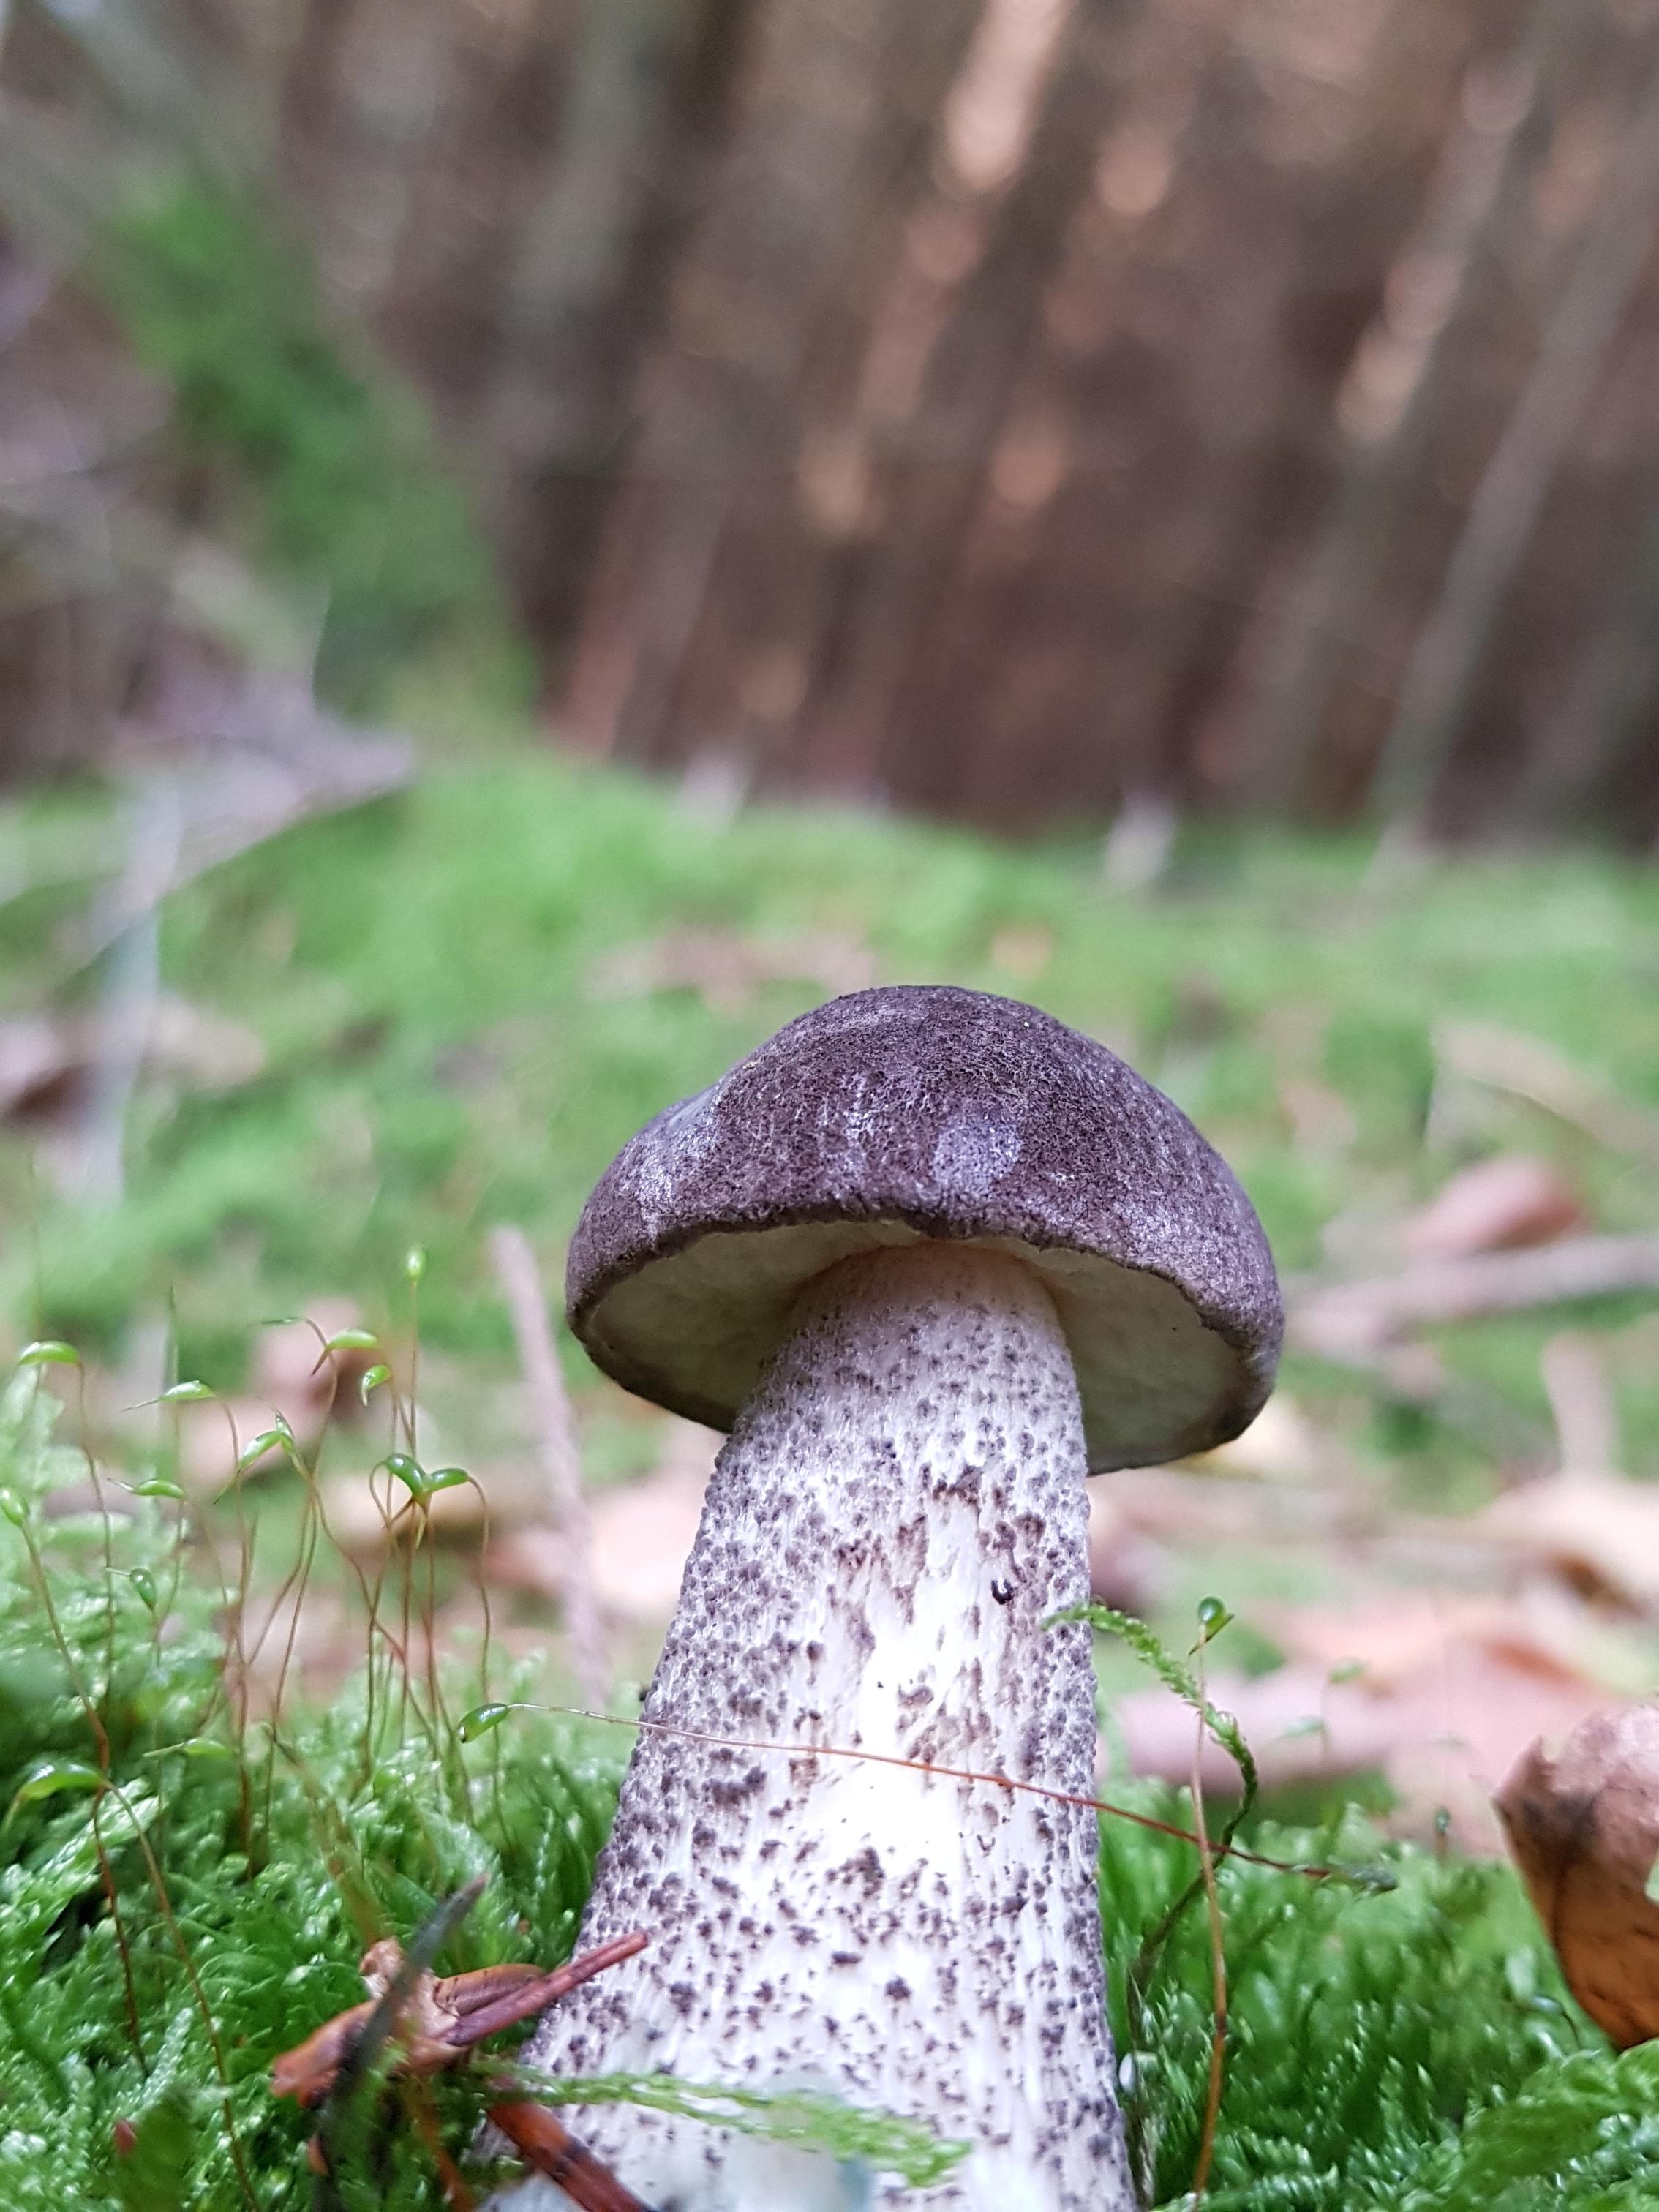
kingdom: Fungi
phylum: Basidiomycota
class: Agaricomycetes
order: Boletales
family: Boletaceae
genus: Leccinum
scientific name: Leccinum variicolor
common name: flammet skælrørhat
